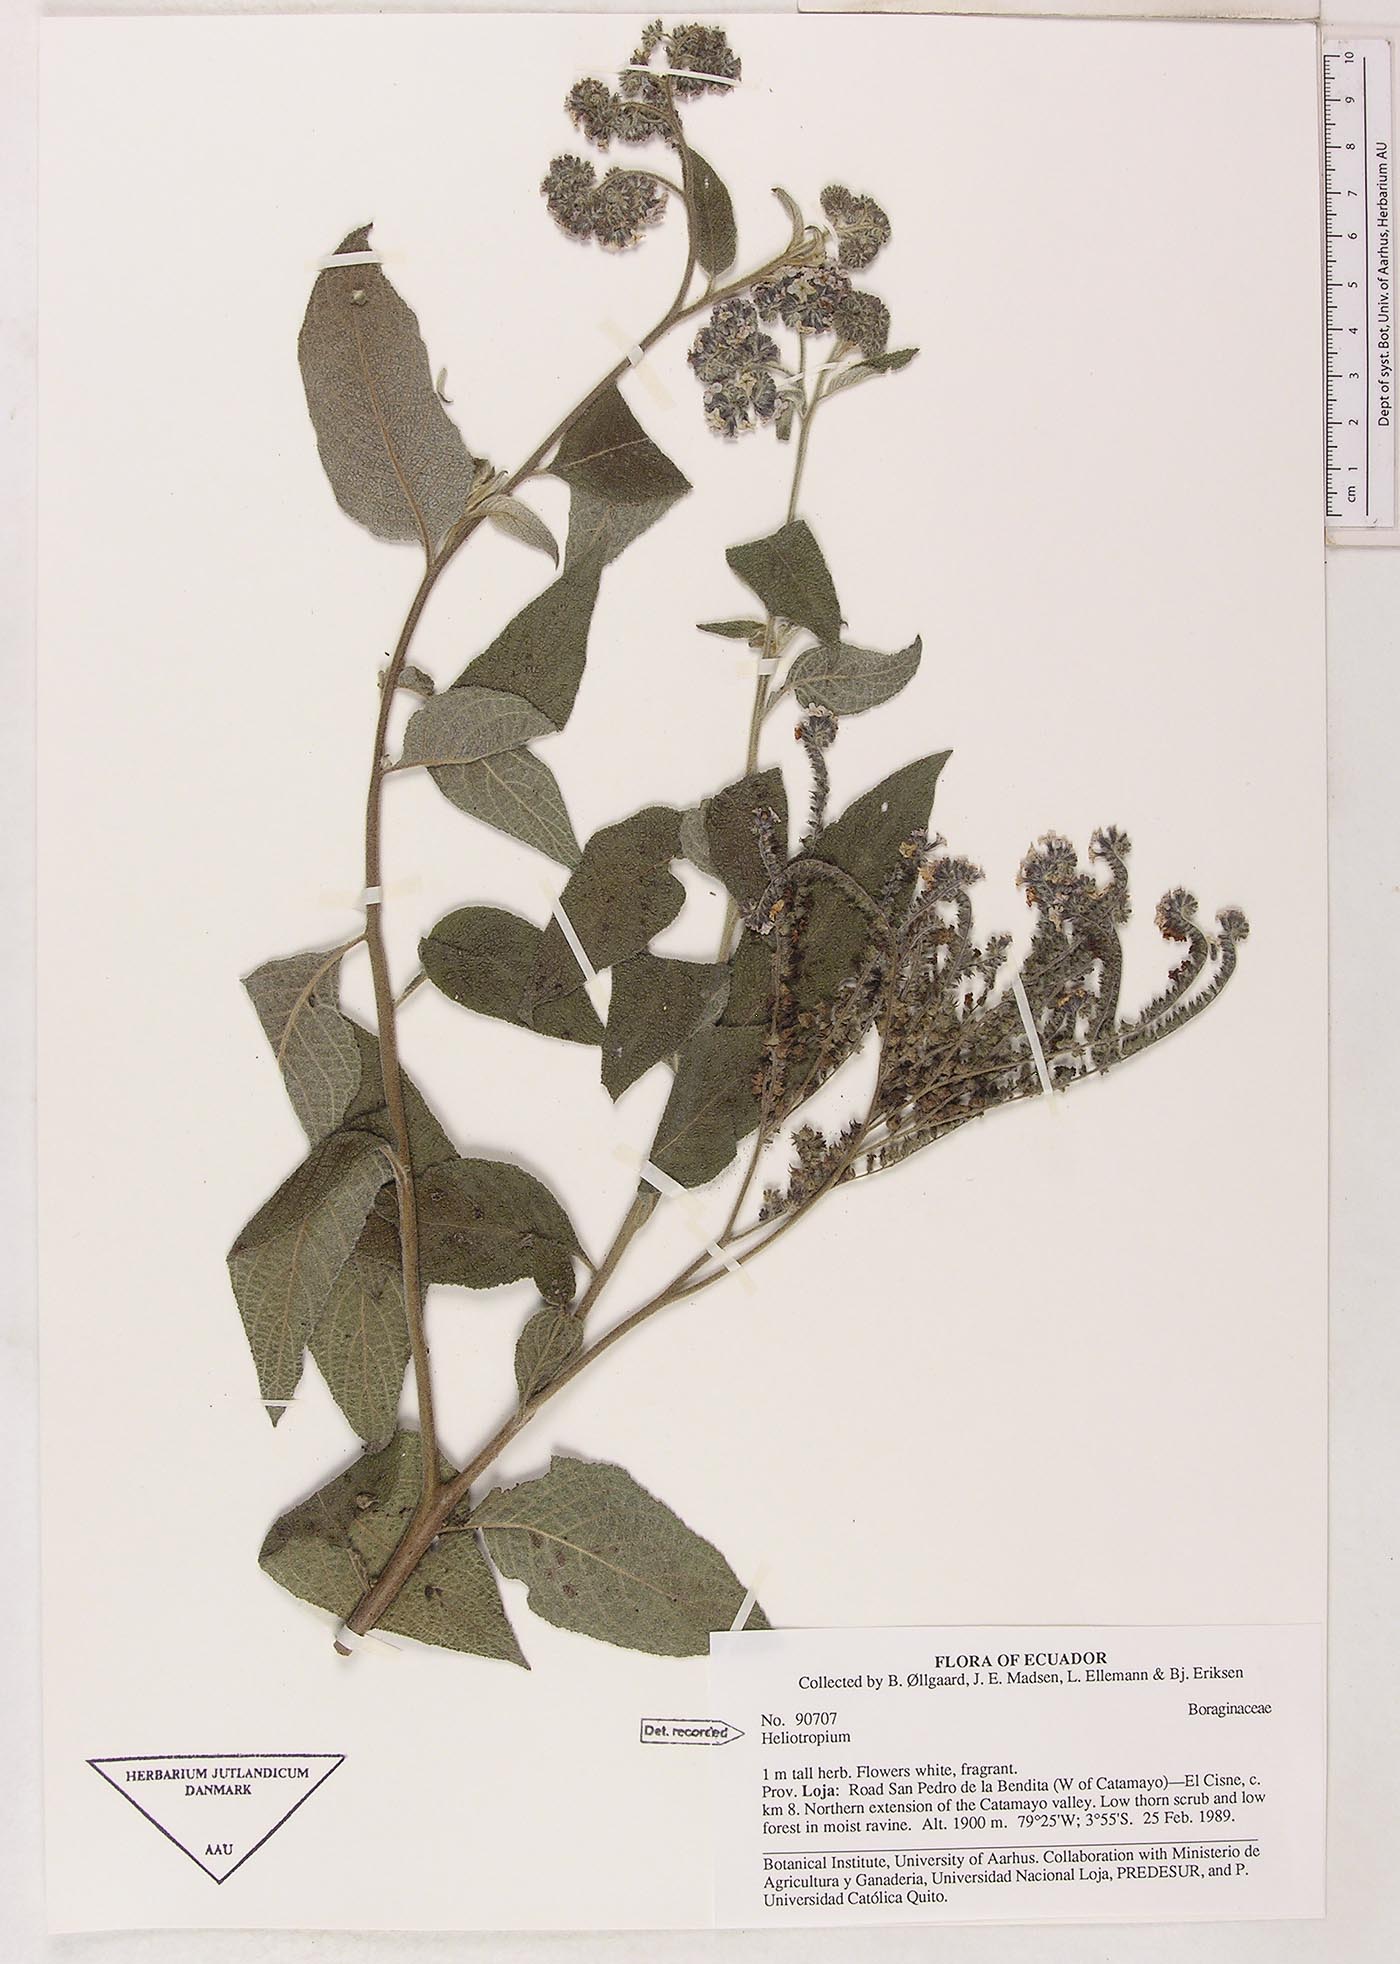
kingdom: Plantae
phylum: Tracheophyta
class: Magnoliopsida
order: Boraginales
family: Heliotropiaceae
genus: Heliotropium
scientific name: Heliotropium
